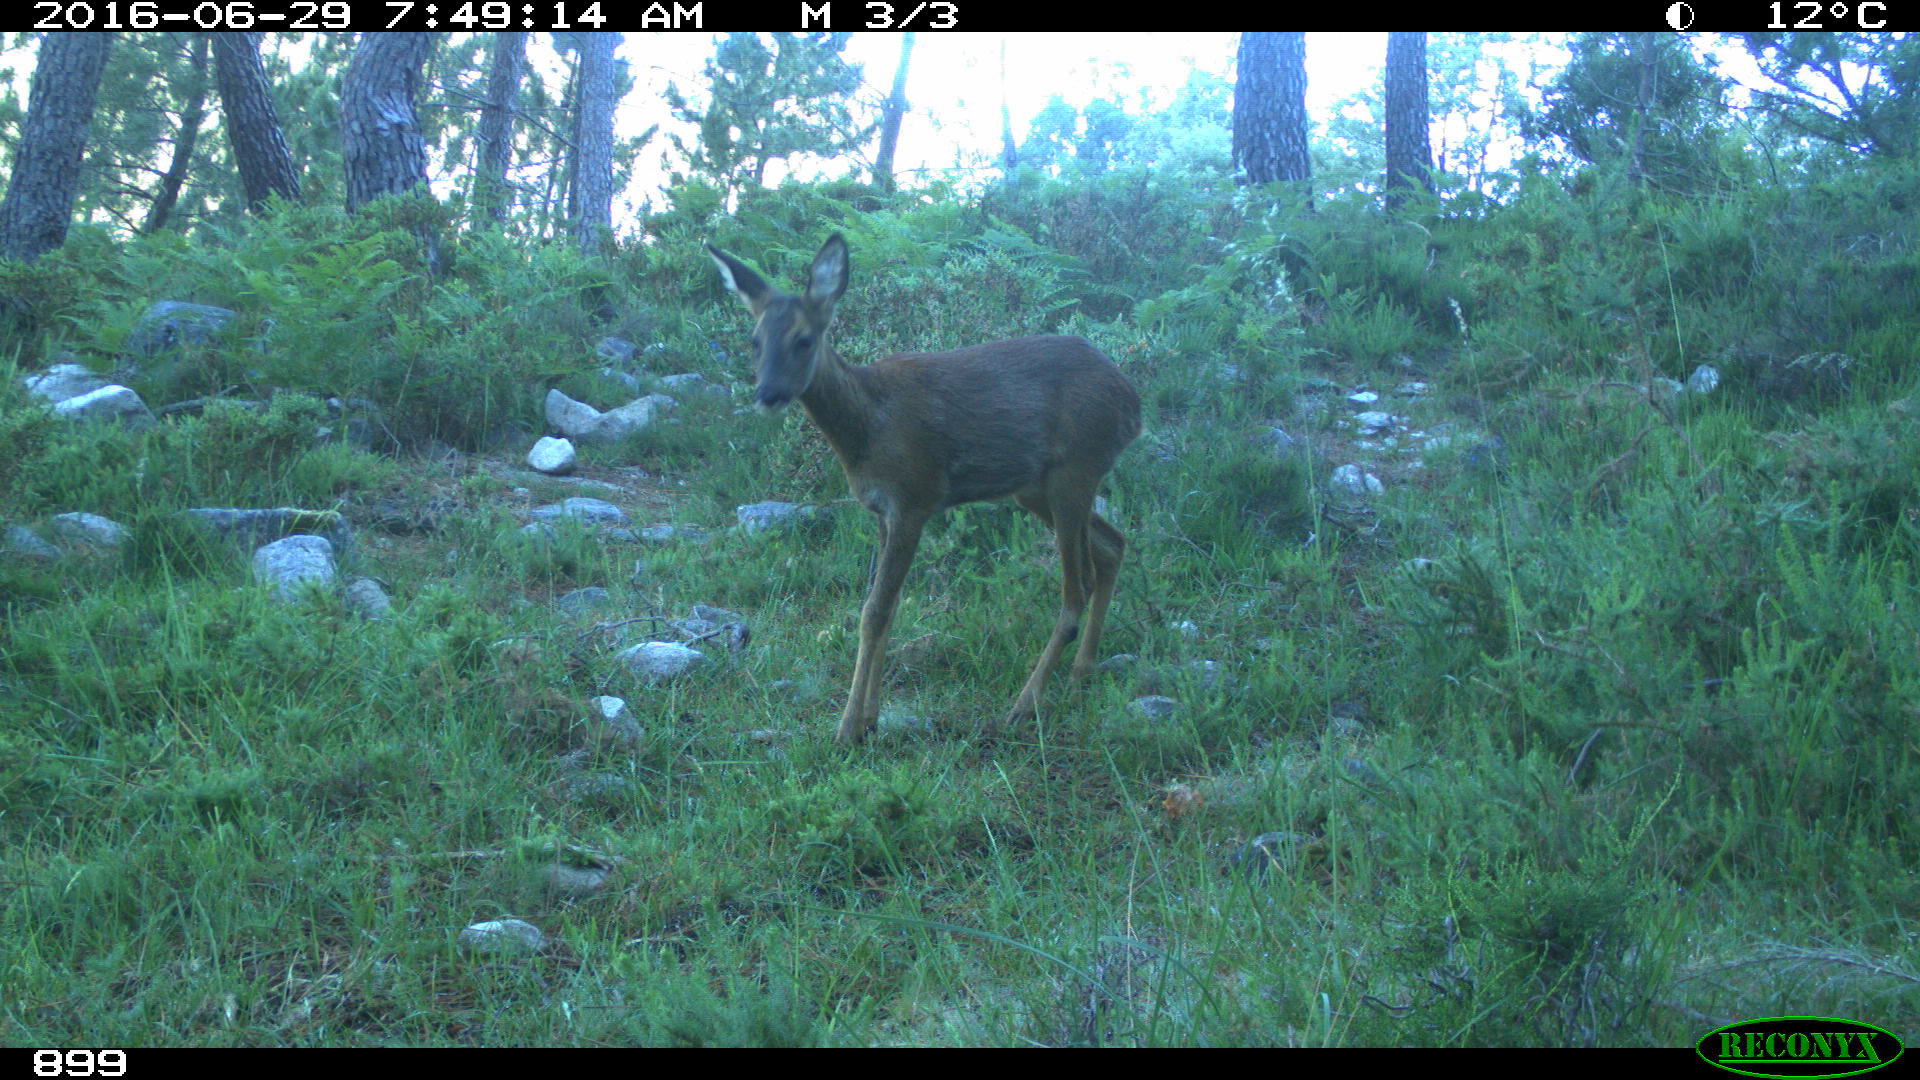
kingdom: Animalia
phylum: Chordata
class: Mammalia
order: Artiodactyla
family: Cervidae
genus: Capreolus
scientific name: Capreolus capreolus
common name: Western roe deer
